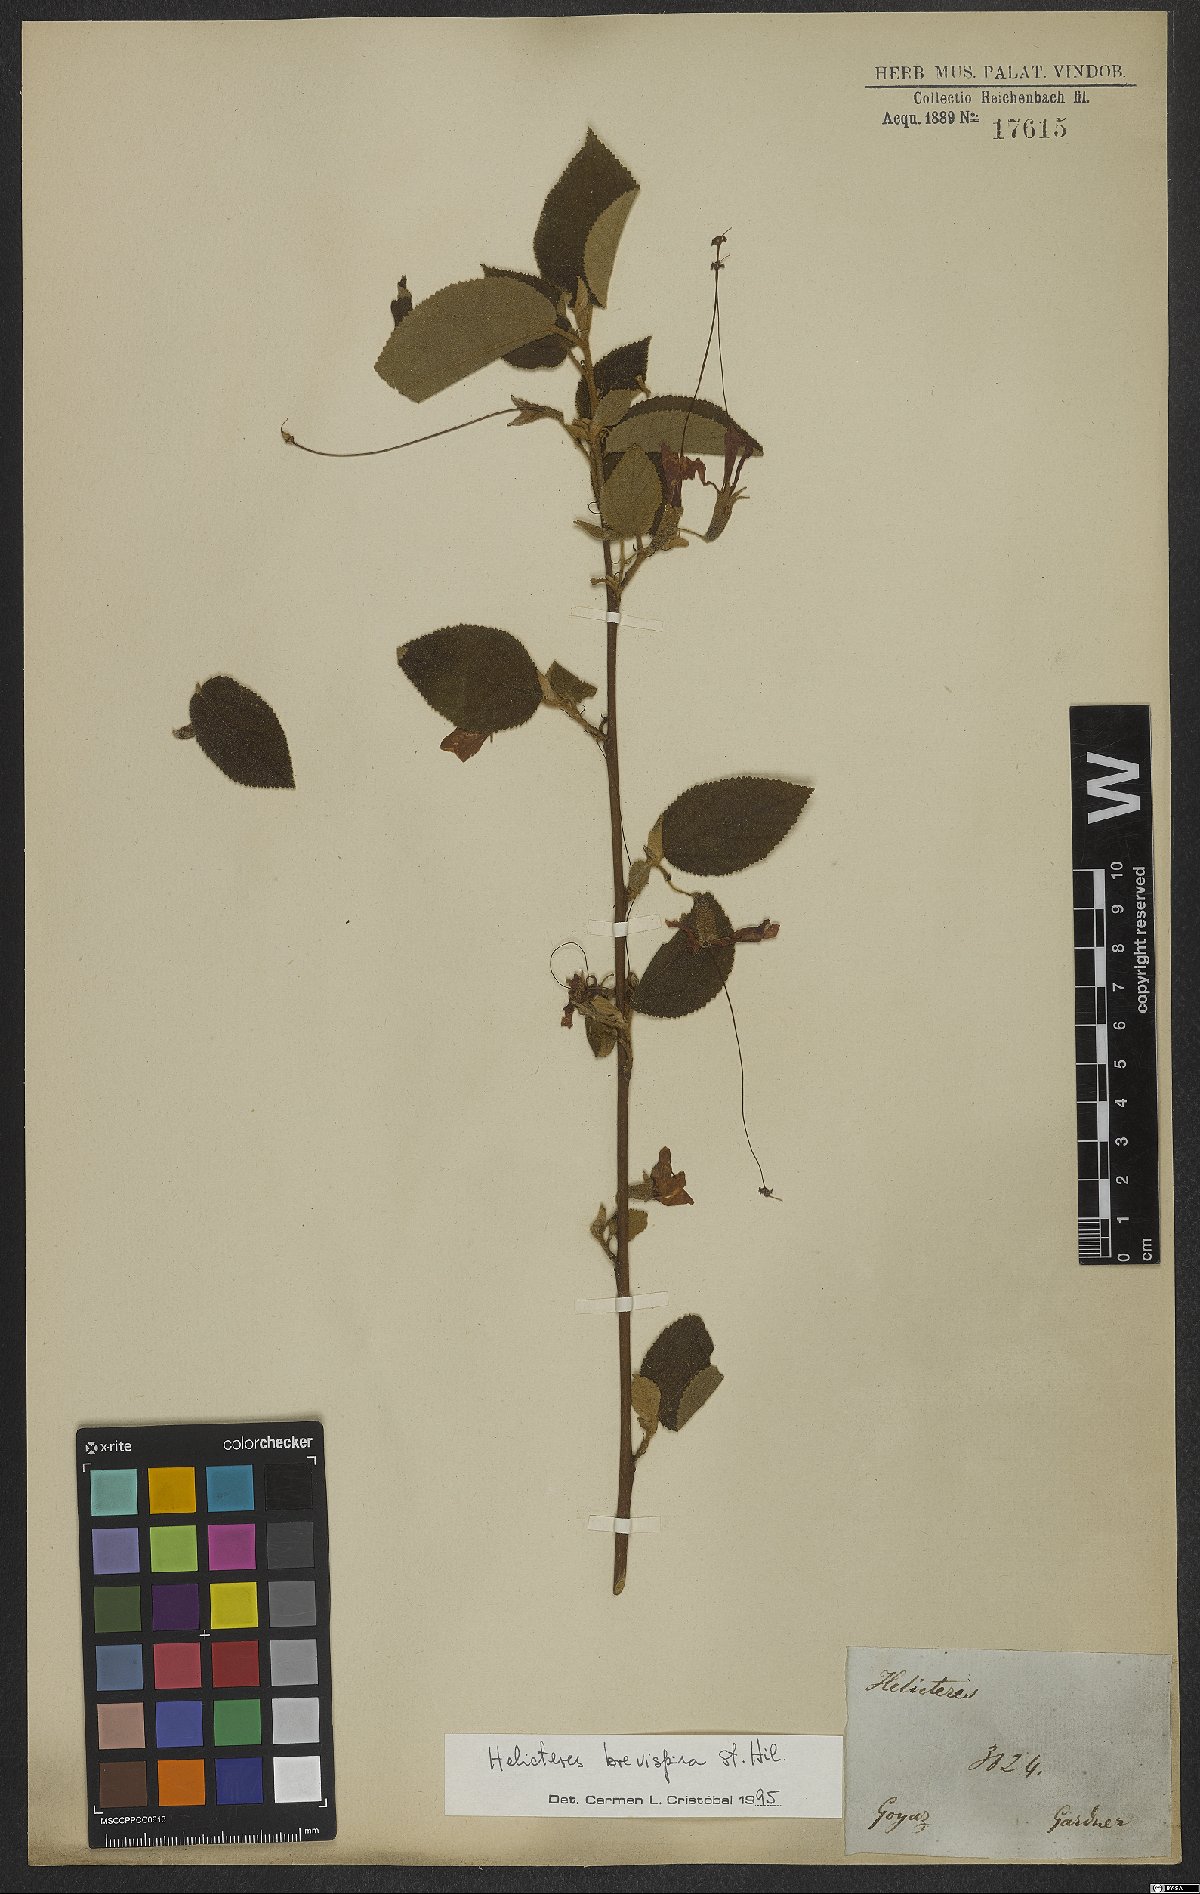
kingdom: Plantae
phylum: Tracheophyta
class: Magnoliopsida
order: Malvales
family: Malvaceae
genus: Helicteres
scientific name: Helicteres brevispira
